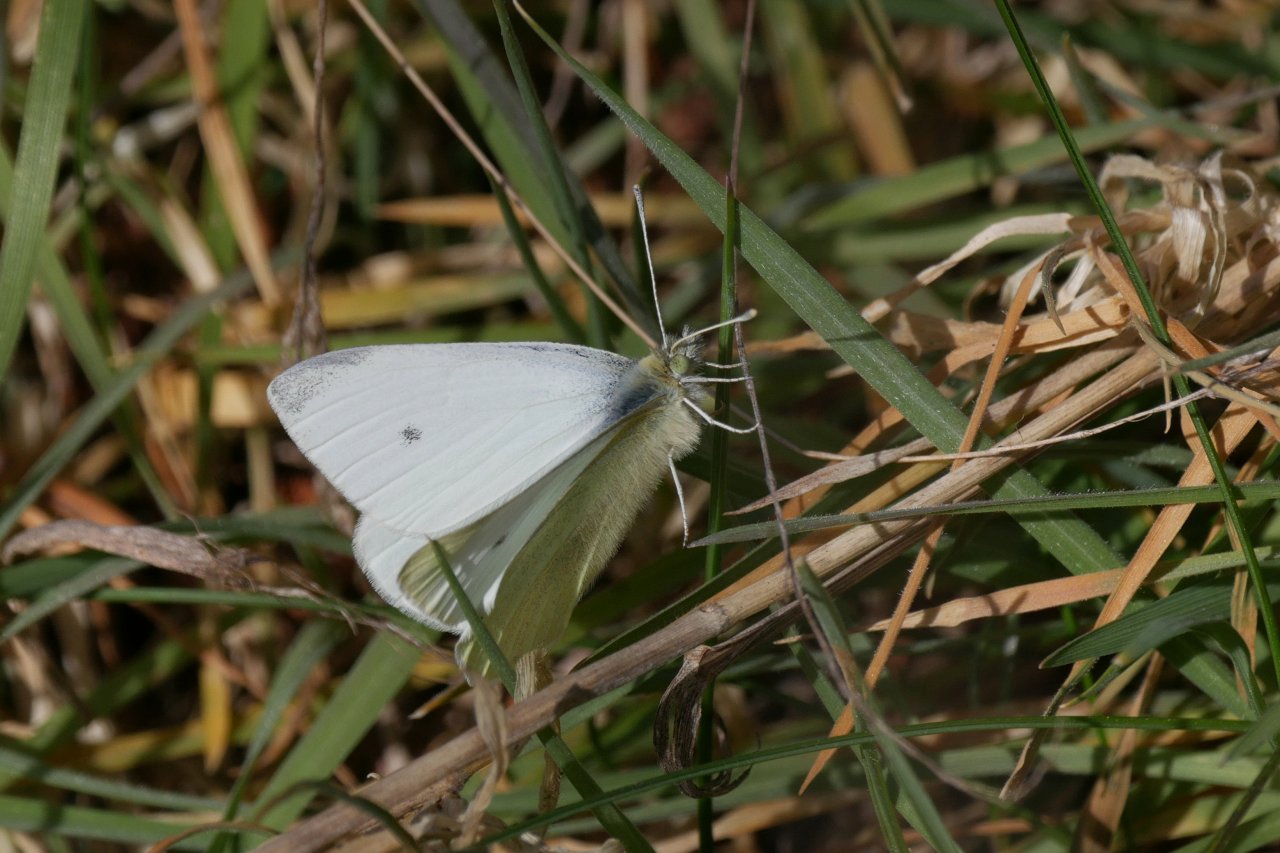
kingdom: Animalia
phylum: Arthropoda
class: Insecta
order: Lepidoptera
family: Pieridae
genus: Pieris
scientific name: Pieris rapae
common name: Cabbage White
